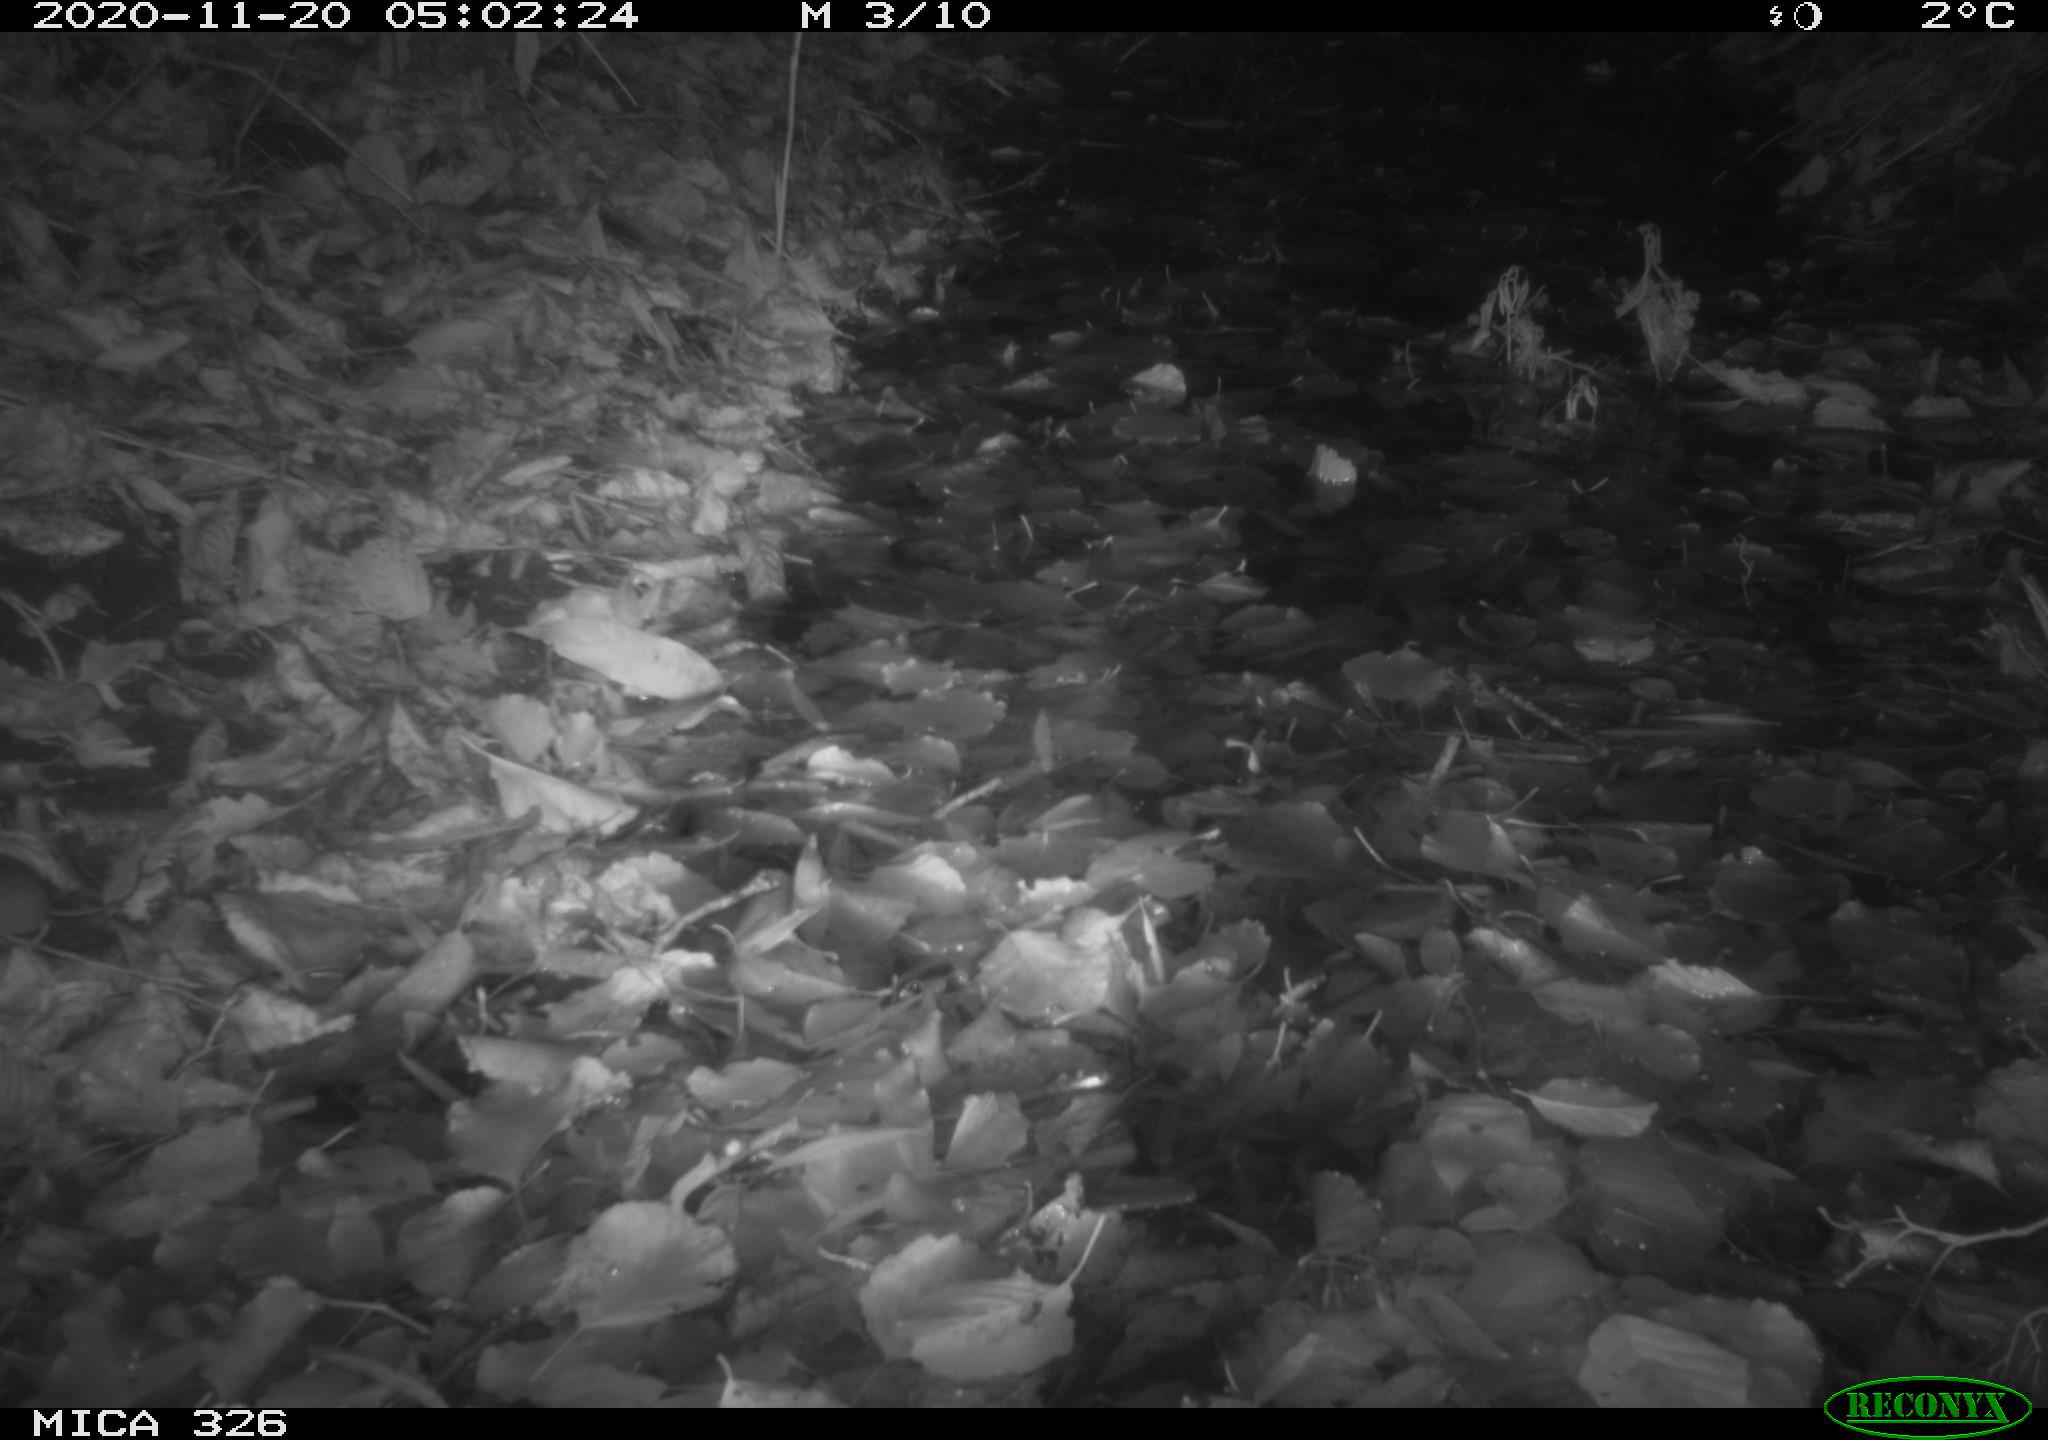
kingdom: Animalia
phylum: Chordata
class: Mammalia
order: Rodentia
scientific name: Rodentia
